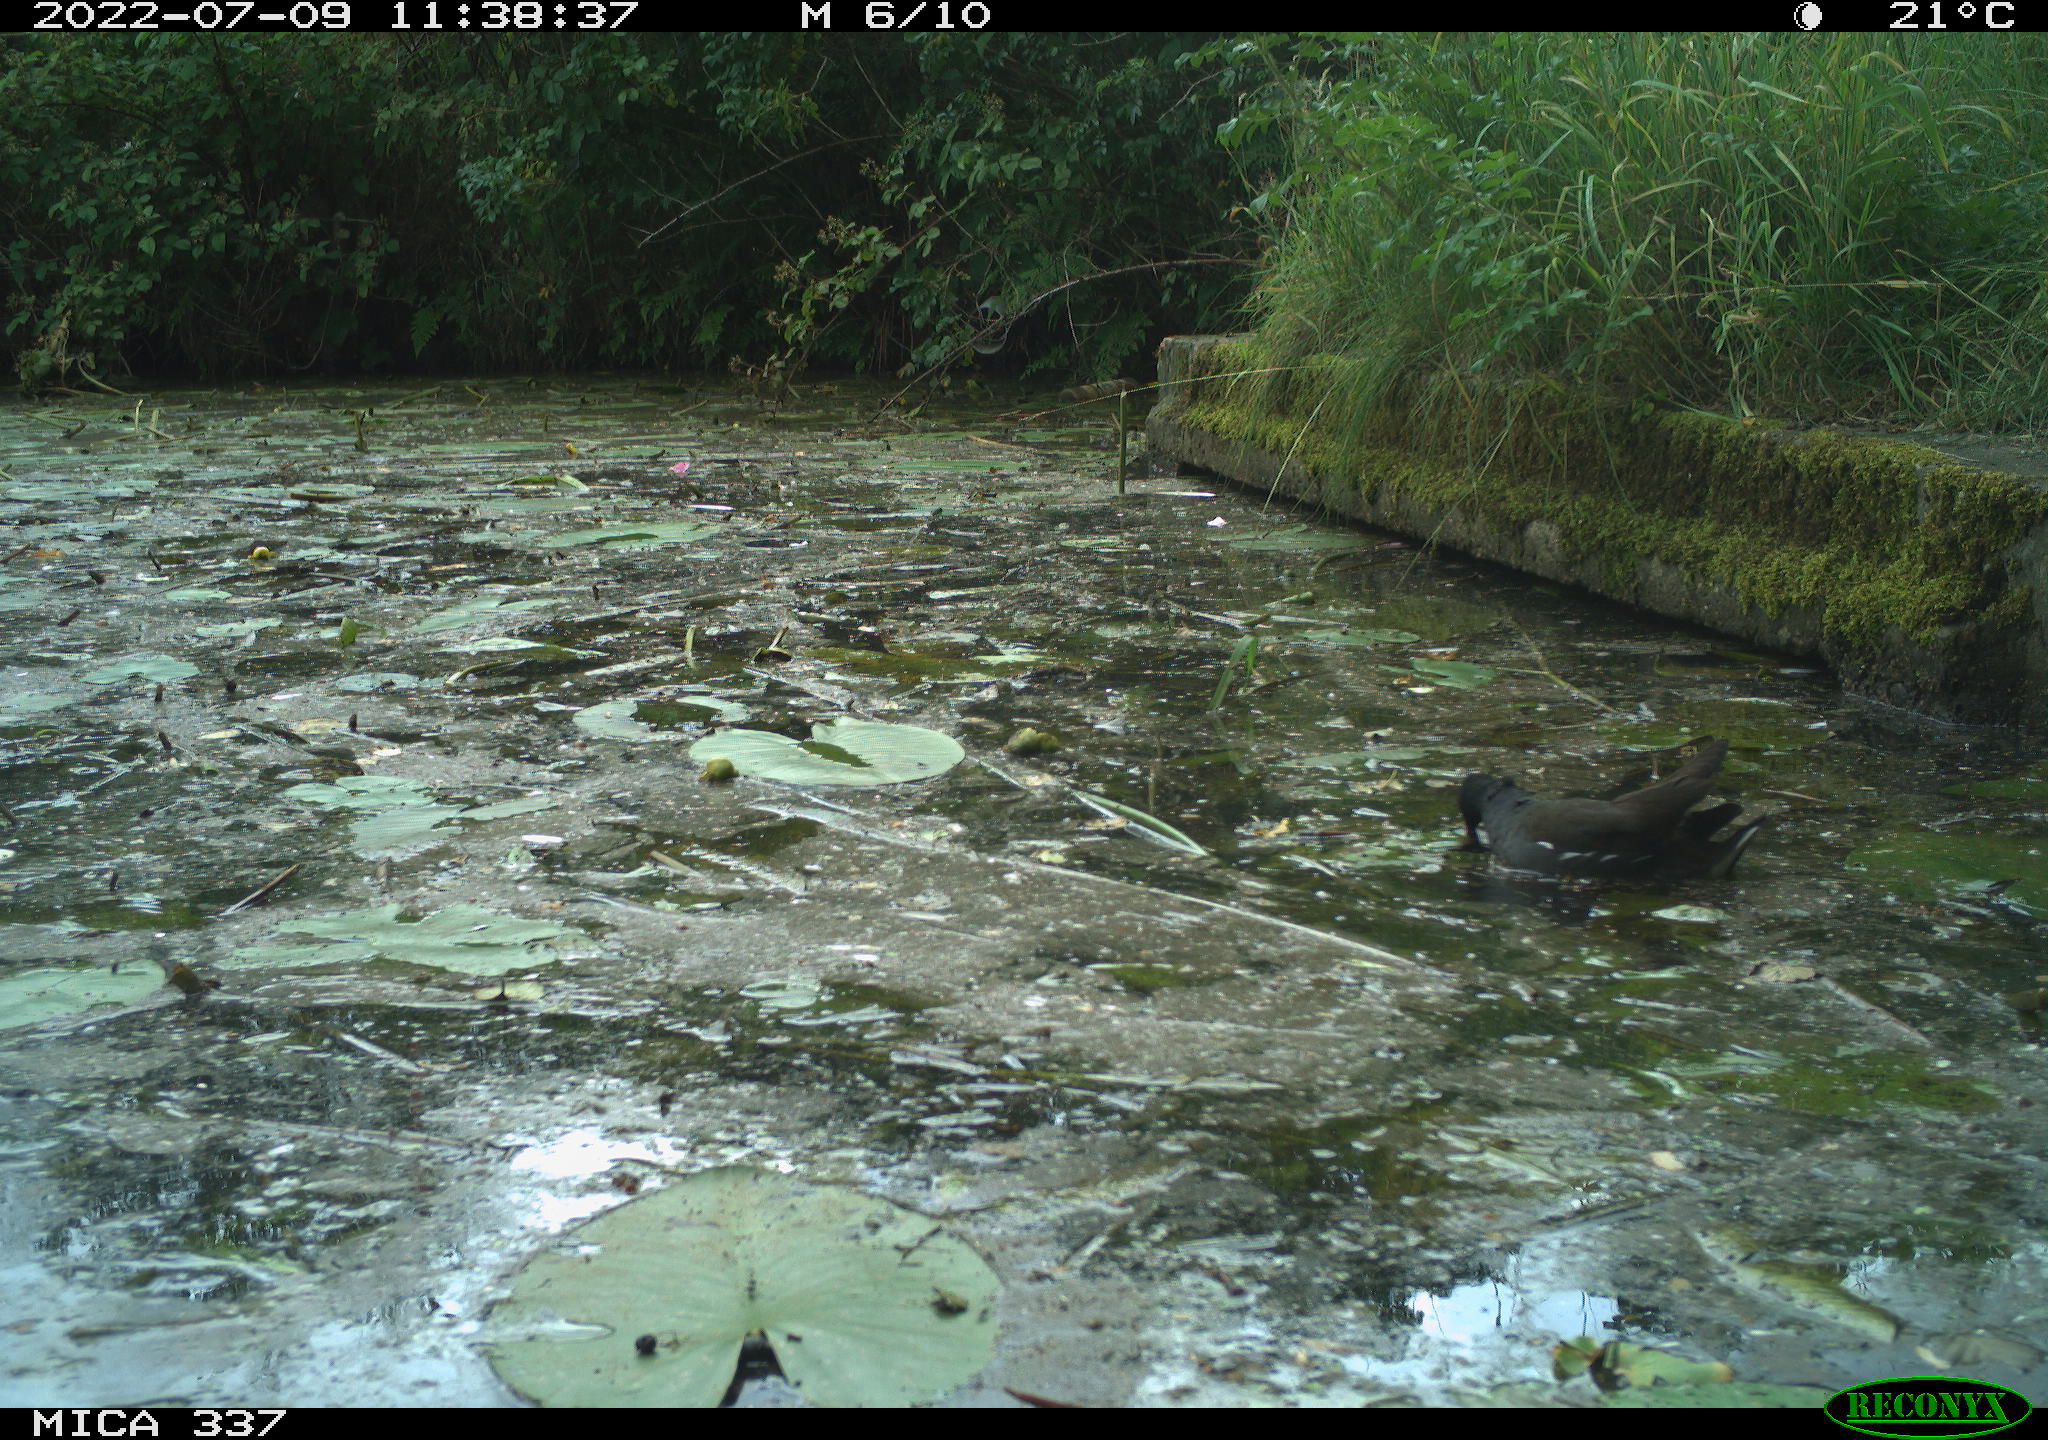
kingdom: Animalia
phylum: Chordata
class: Aves
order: Gruiformes
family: Rallidae
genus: Gallinula
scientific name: Gallinula chloropus
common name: Common moorhen
